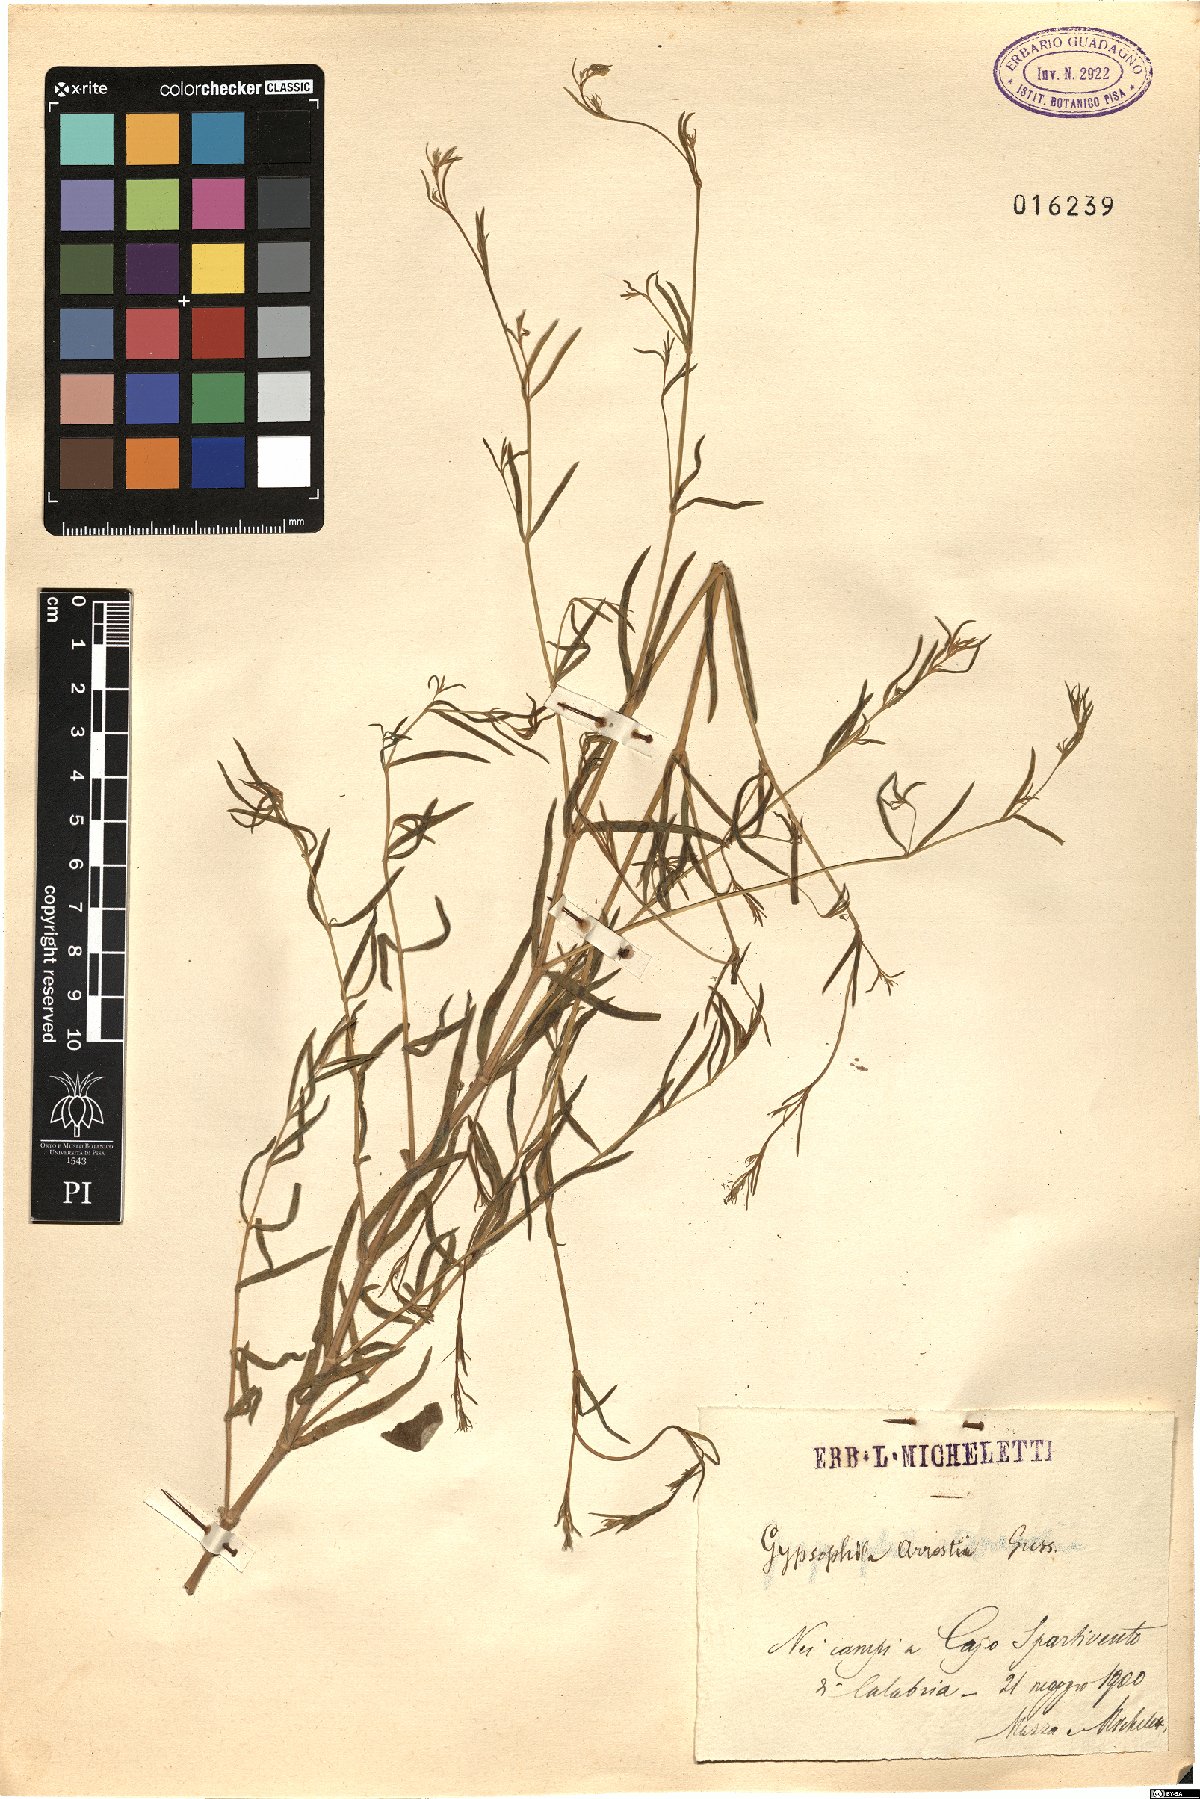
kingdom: Plantae
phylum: Tracheophyta
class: Magnoliopsida
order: Caryophyllales
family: Caryophyllaceae
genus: Gypsophila
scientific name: Gypsophila arrostii
